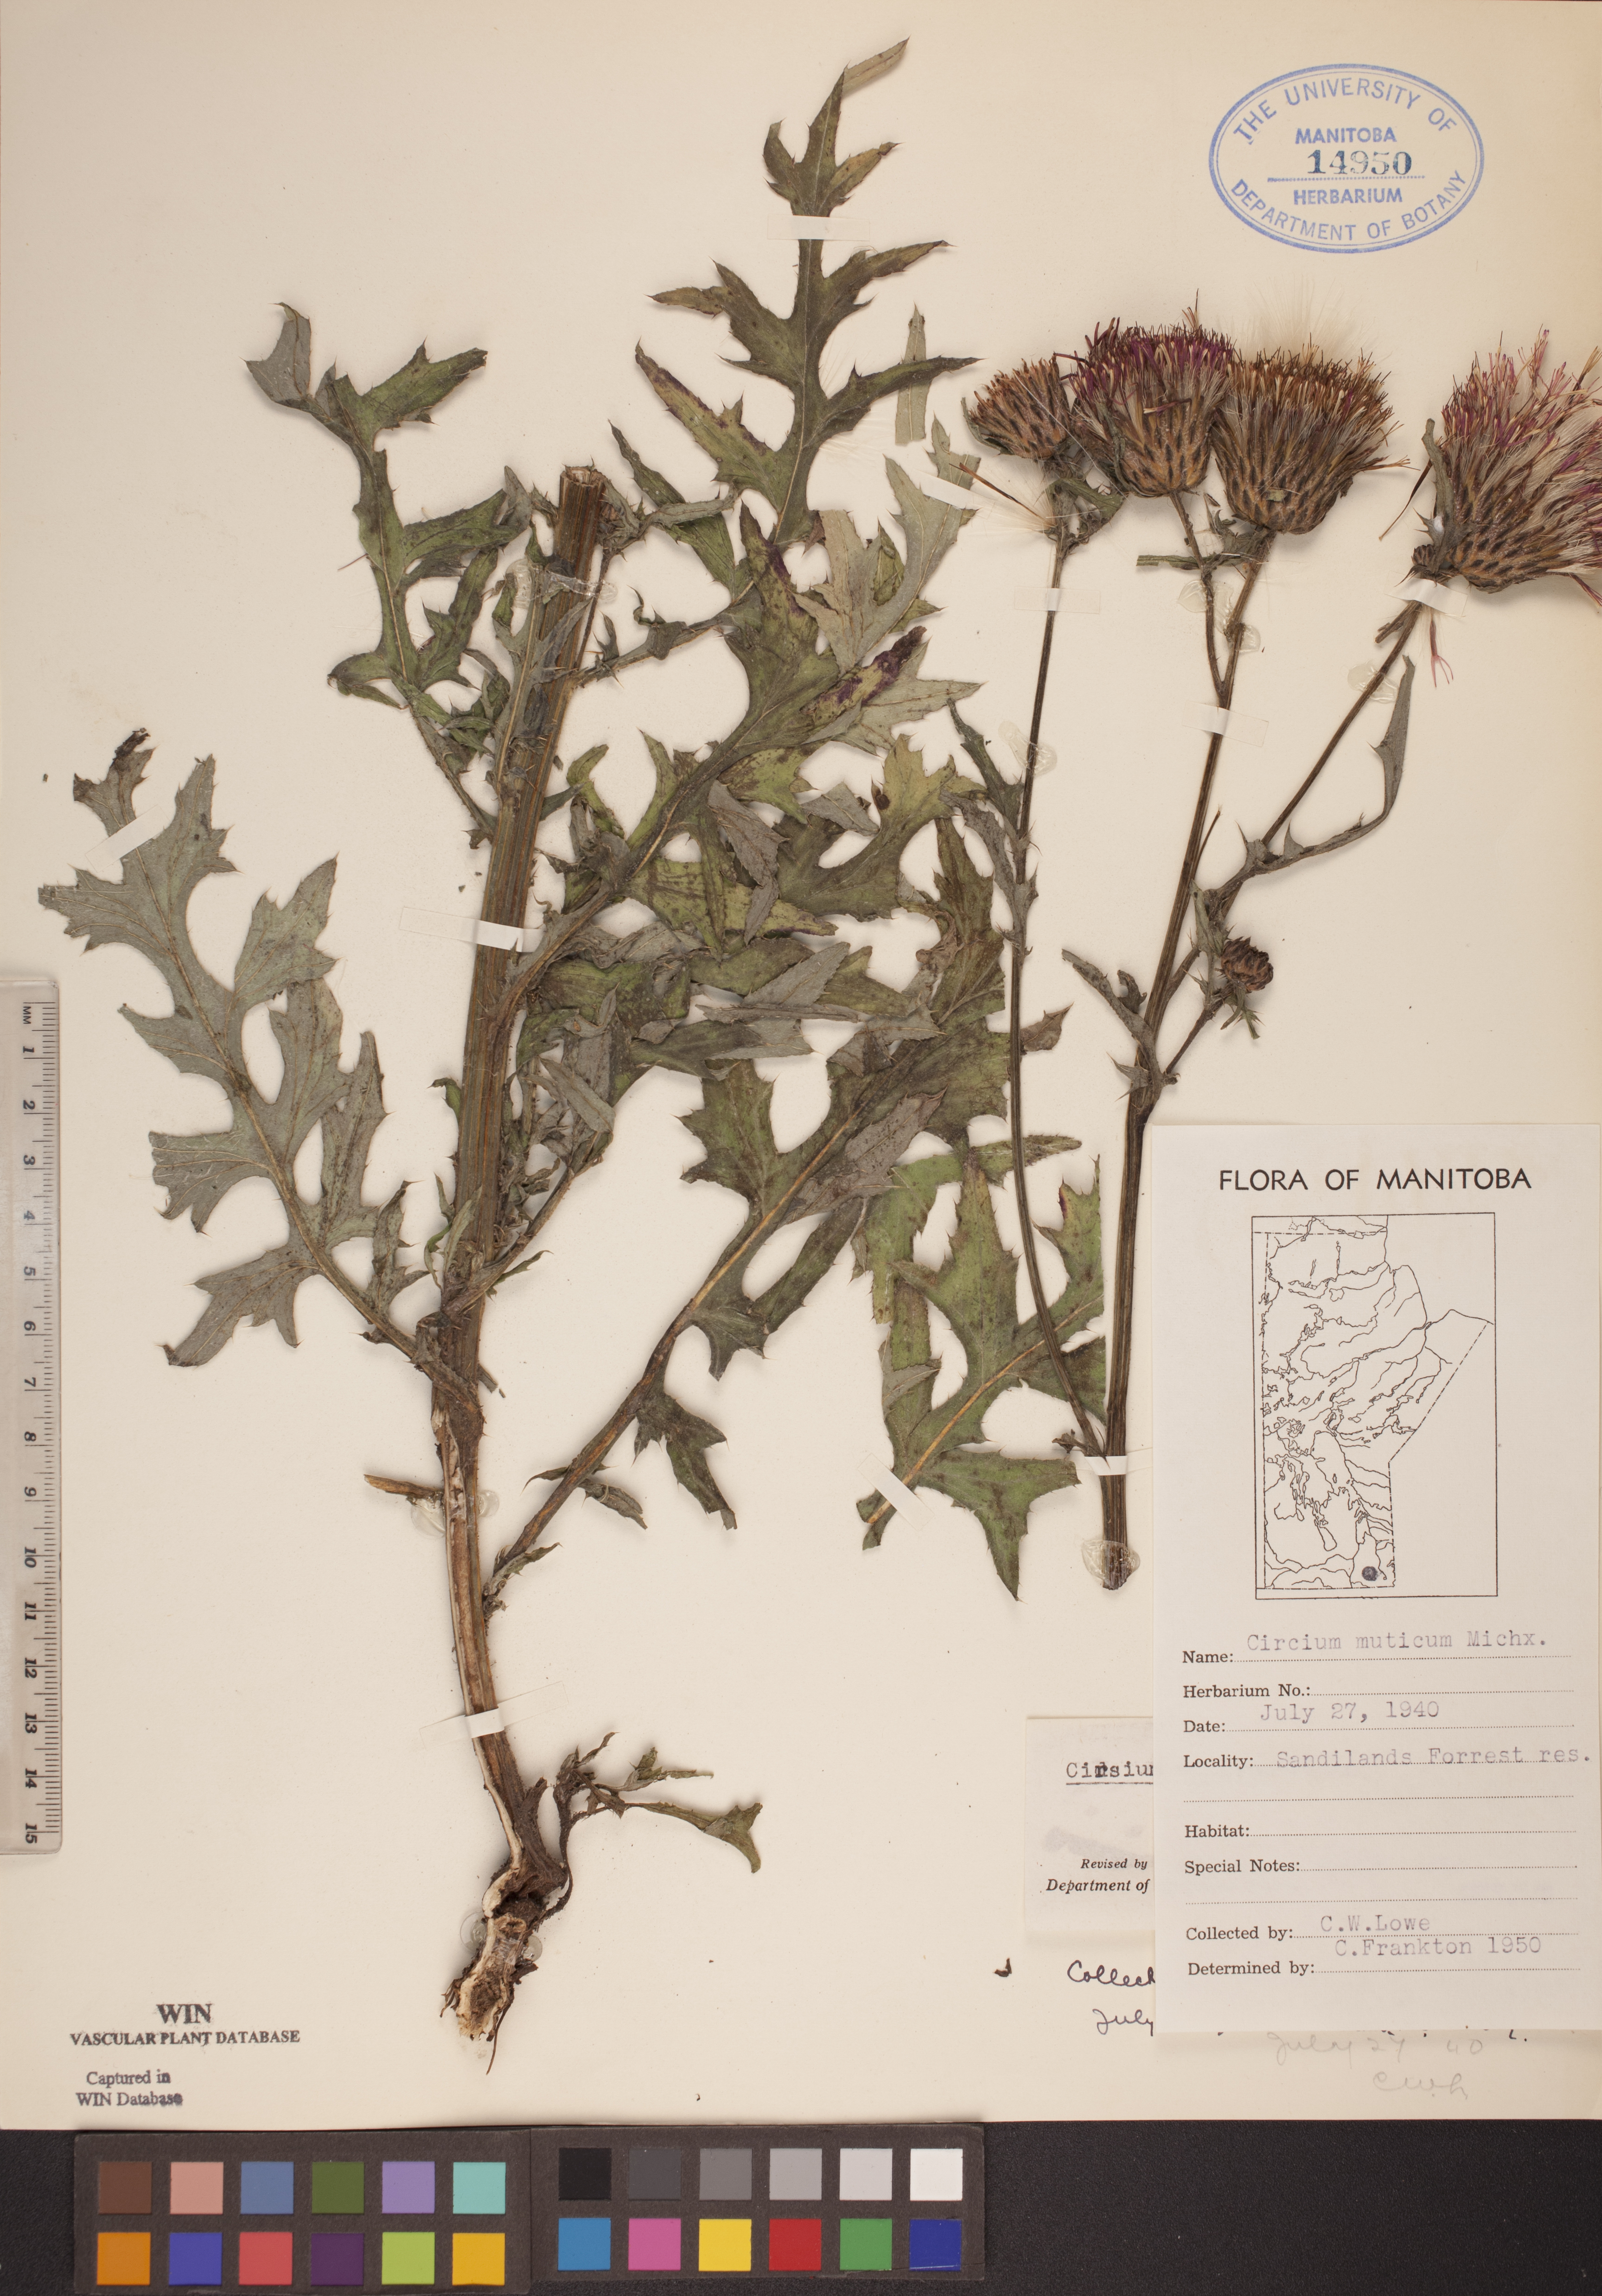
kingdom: Plantae
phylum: Tracheophyta
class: Magnoliopsida
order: Asterales
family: Asteraceae
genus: Cirsium
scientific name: Cirsium muticum
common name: Dunce-nettle
